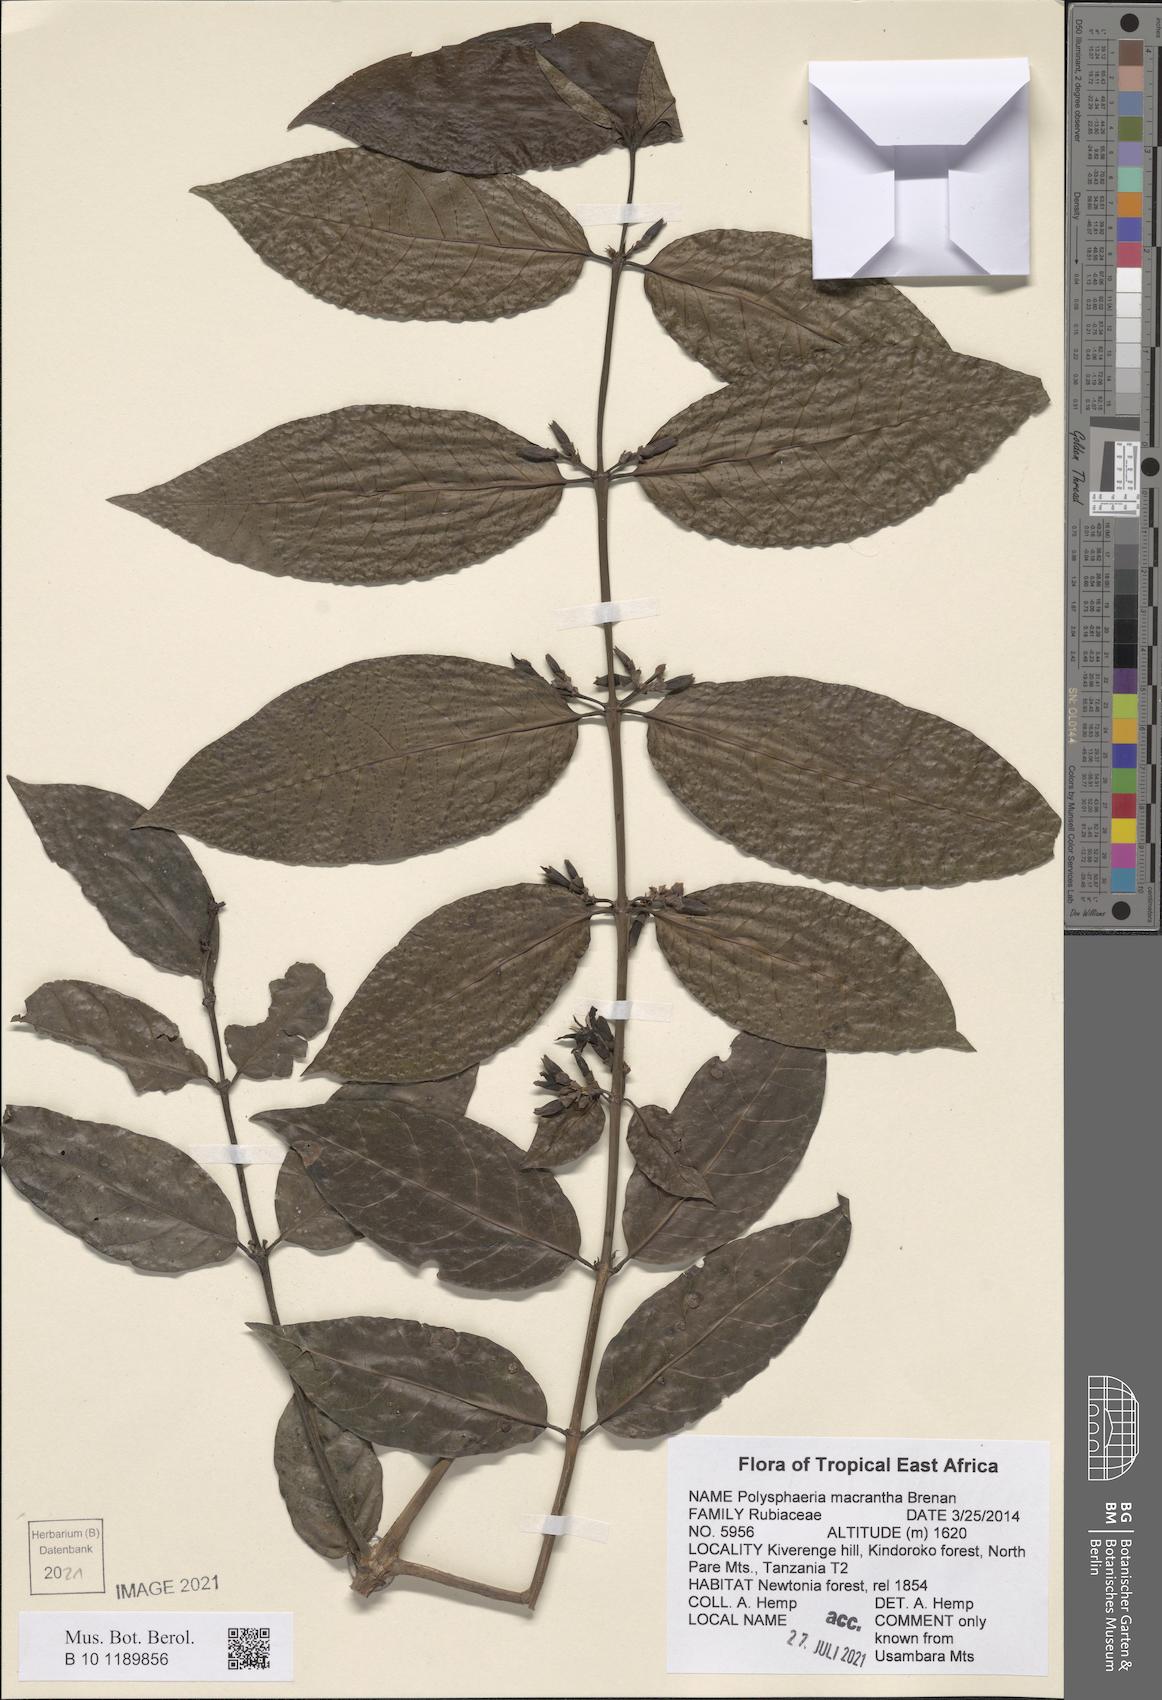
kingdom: Plantae
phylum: Tracheophyta
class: Magnoliopsida
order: Gentianales
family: Rubiaceae
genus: Polysphaeria
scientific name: Polysphaeria macrantha
